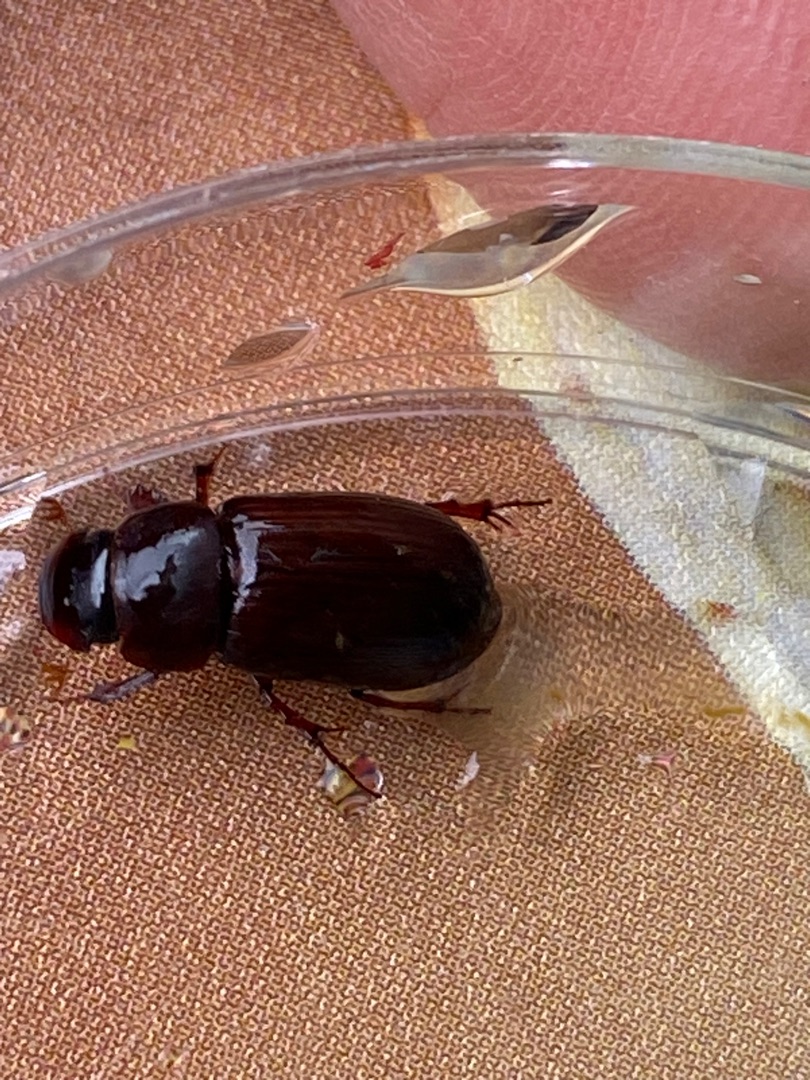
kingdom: Animalia
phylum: Arthropoda
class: Insecta
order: Coleoptera
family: Scarabaeidae
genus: Acrossus
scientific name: Acrossus rufipes
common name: Rødbenet møgbille
